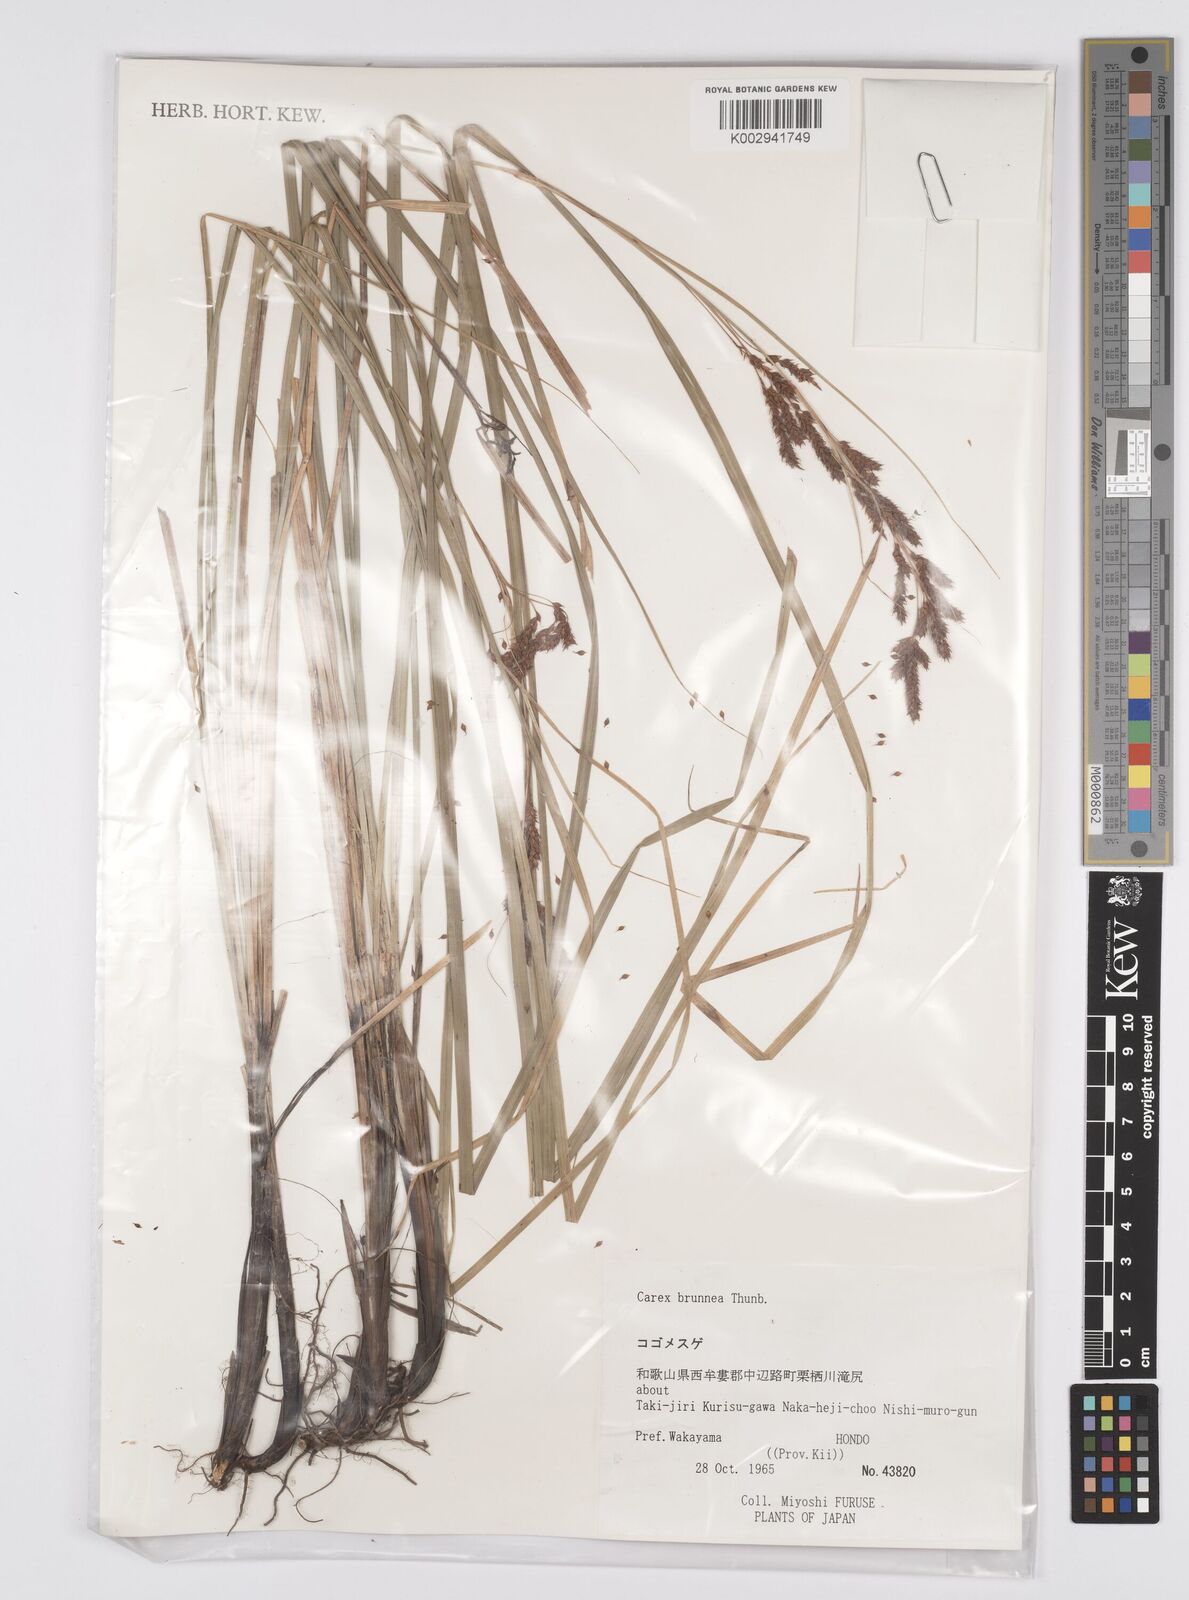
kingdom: Plantae
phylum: Tracheophyta
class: Liliopsida
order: Poales
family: Cyperaceae
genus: Carex
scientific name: Carex brunnea
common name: Greater brown sedge
